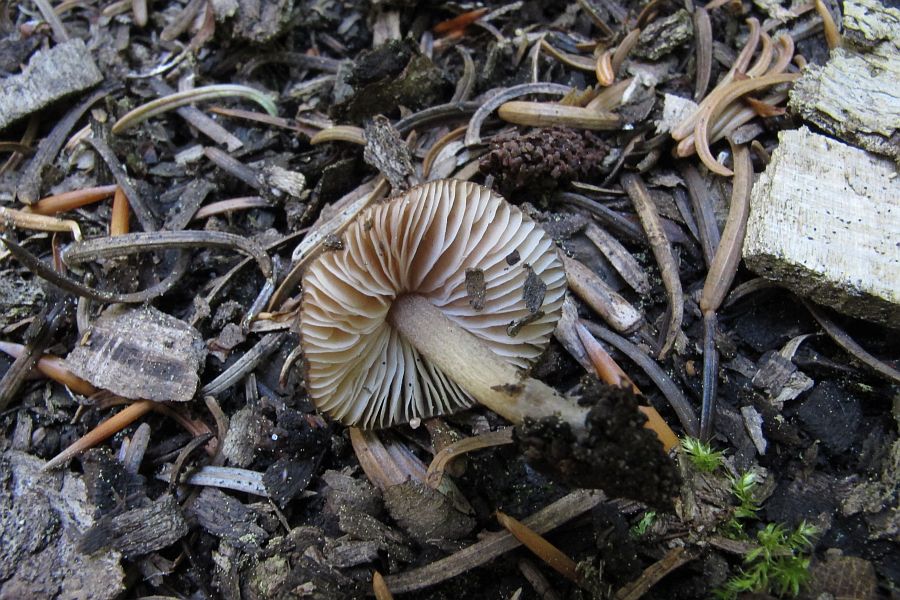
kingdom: Fungi
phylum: Basidiomycota
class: Agaricomycetes
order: Agaricales
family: Pluteaceae
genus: Pluteus
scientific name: Pluteus podospileus
